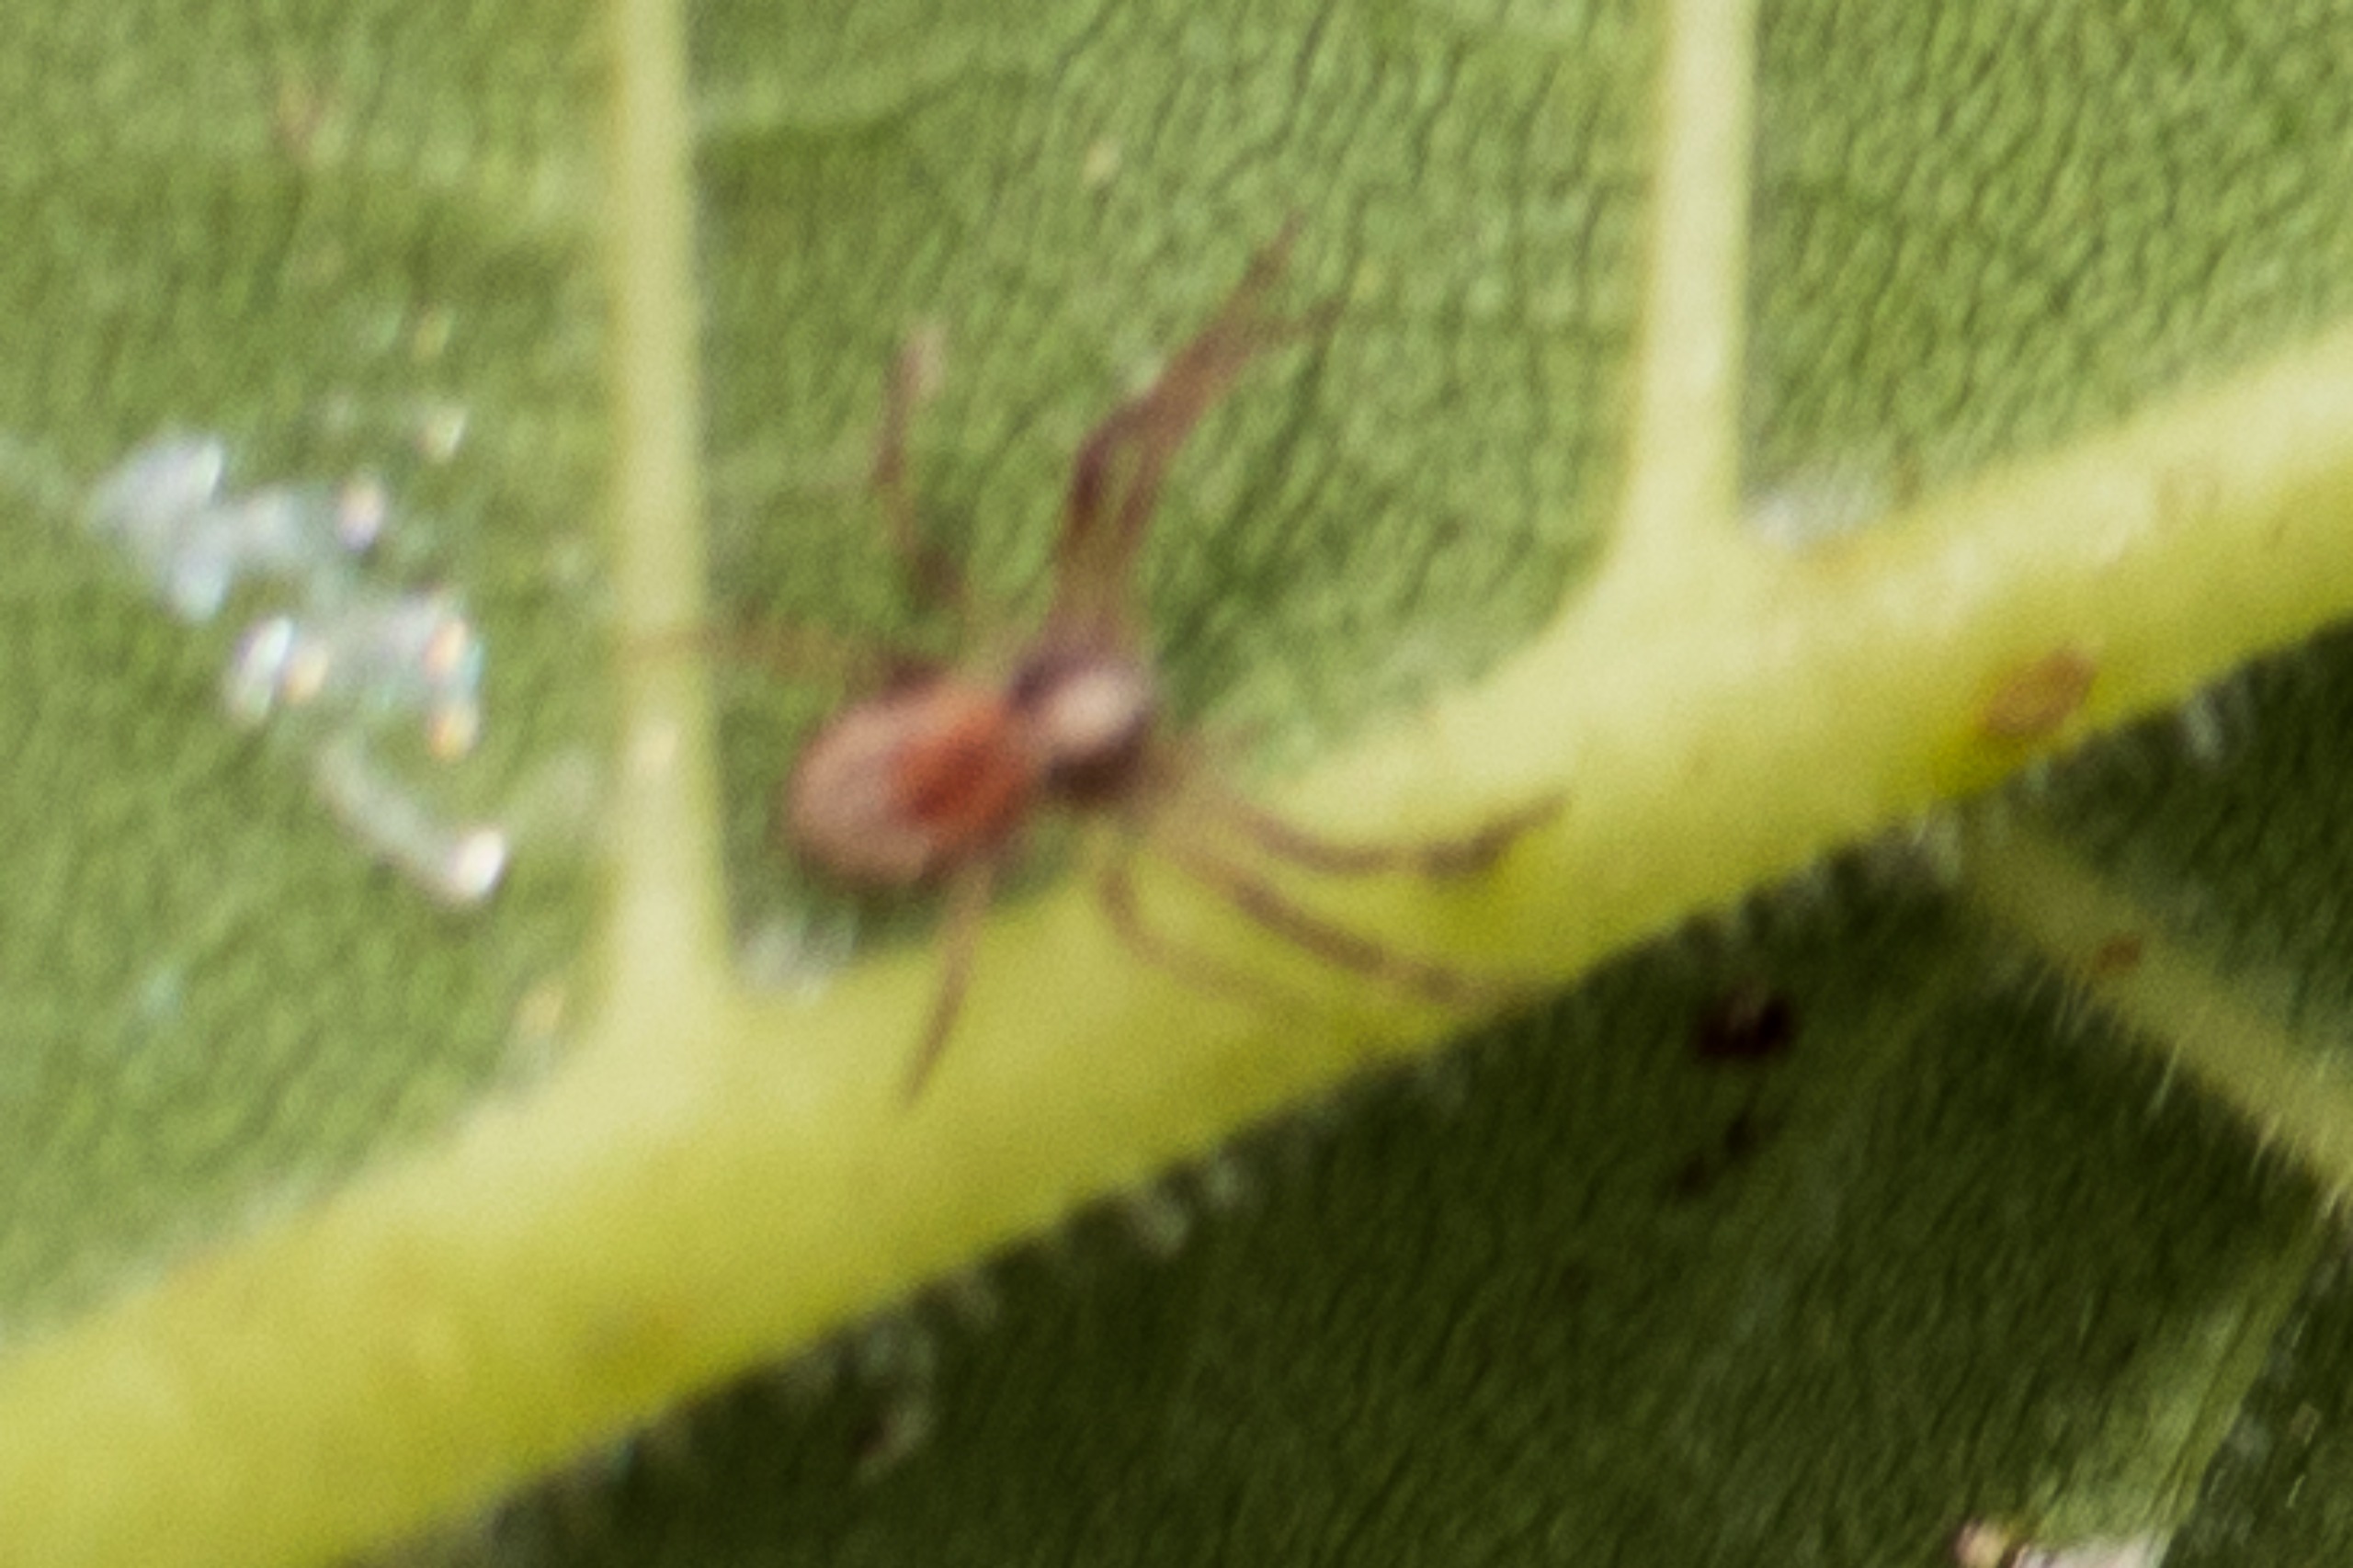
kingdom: Animalia
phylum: Arthropoda
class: Arachnida
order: Araneae
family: Philodromidae
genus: Philodromus
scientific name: Philodromus
